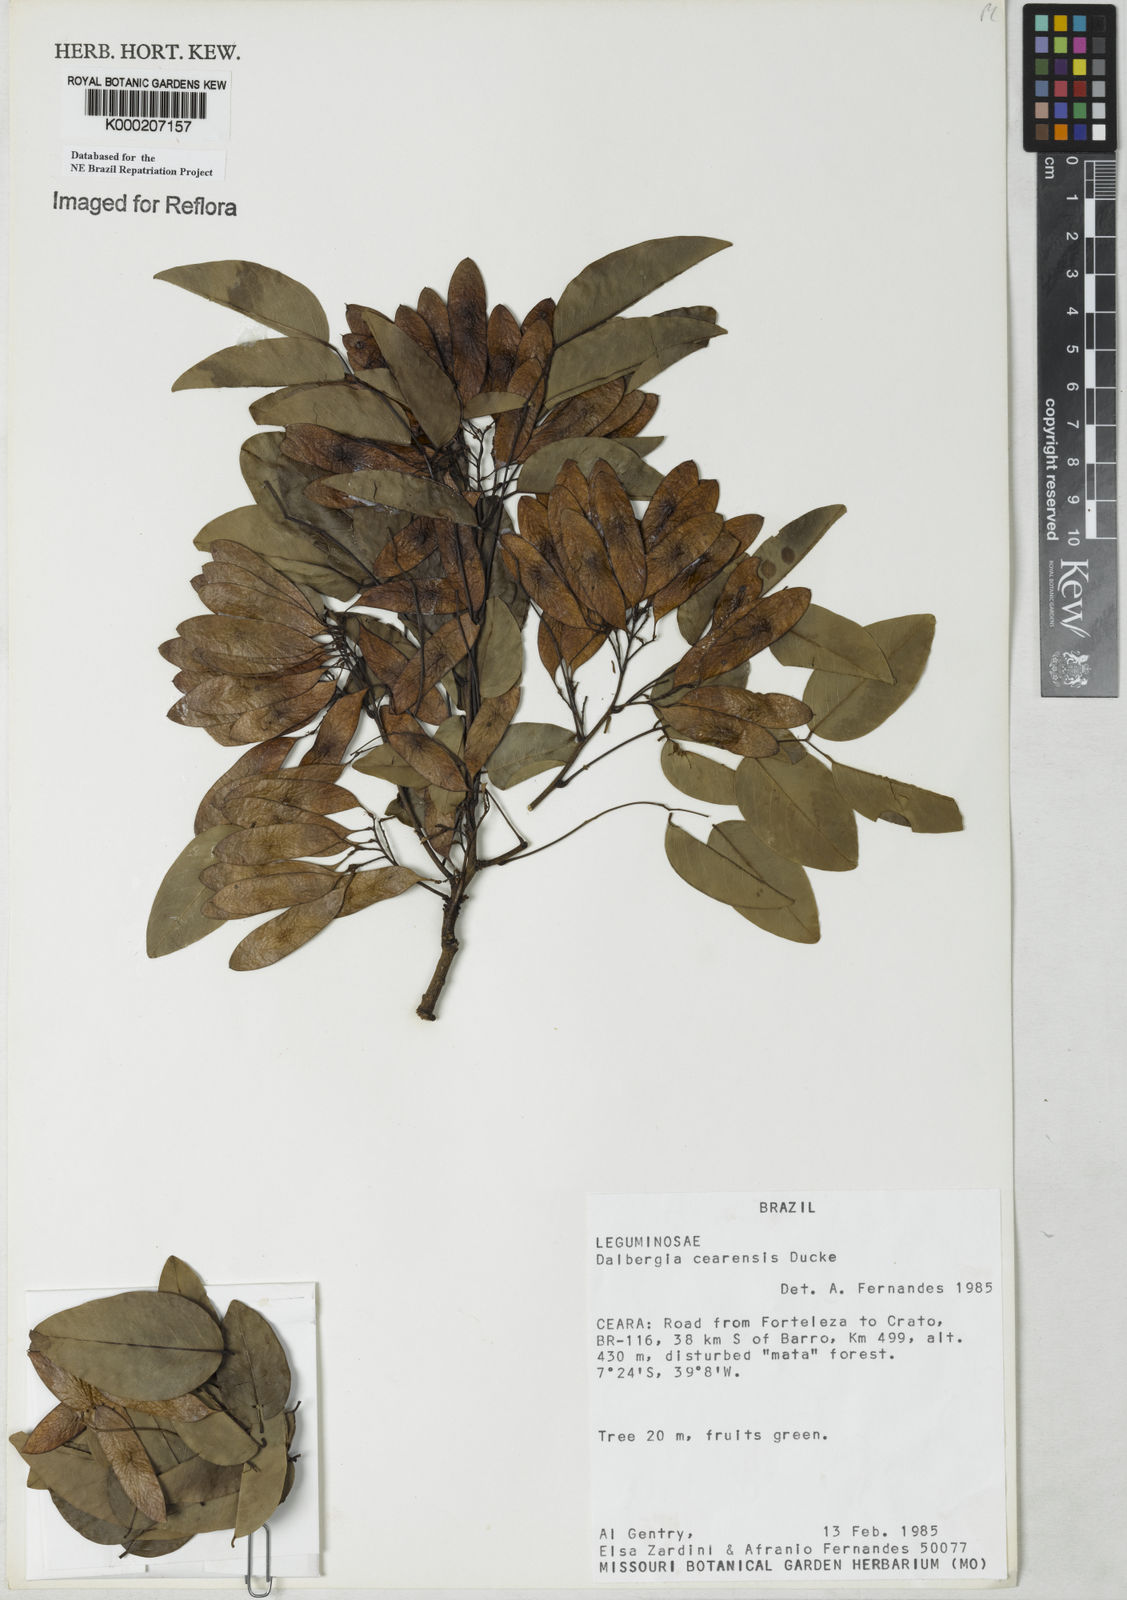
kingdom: Plantae
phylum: Tracheophyta
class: Magnoliopsida
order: Fabales
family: Fabaceae
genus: Dalbergia
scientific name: Dalbergia cearensis
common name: Brazilian-king-wood
